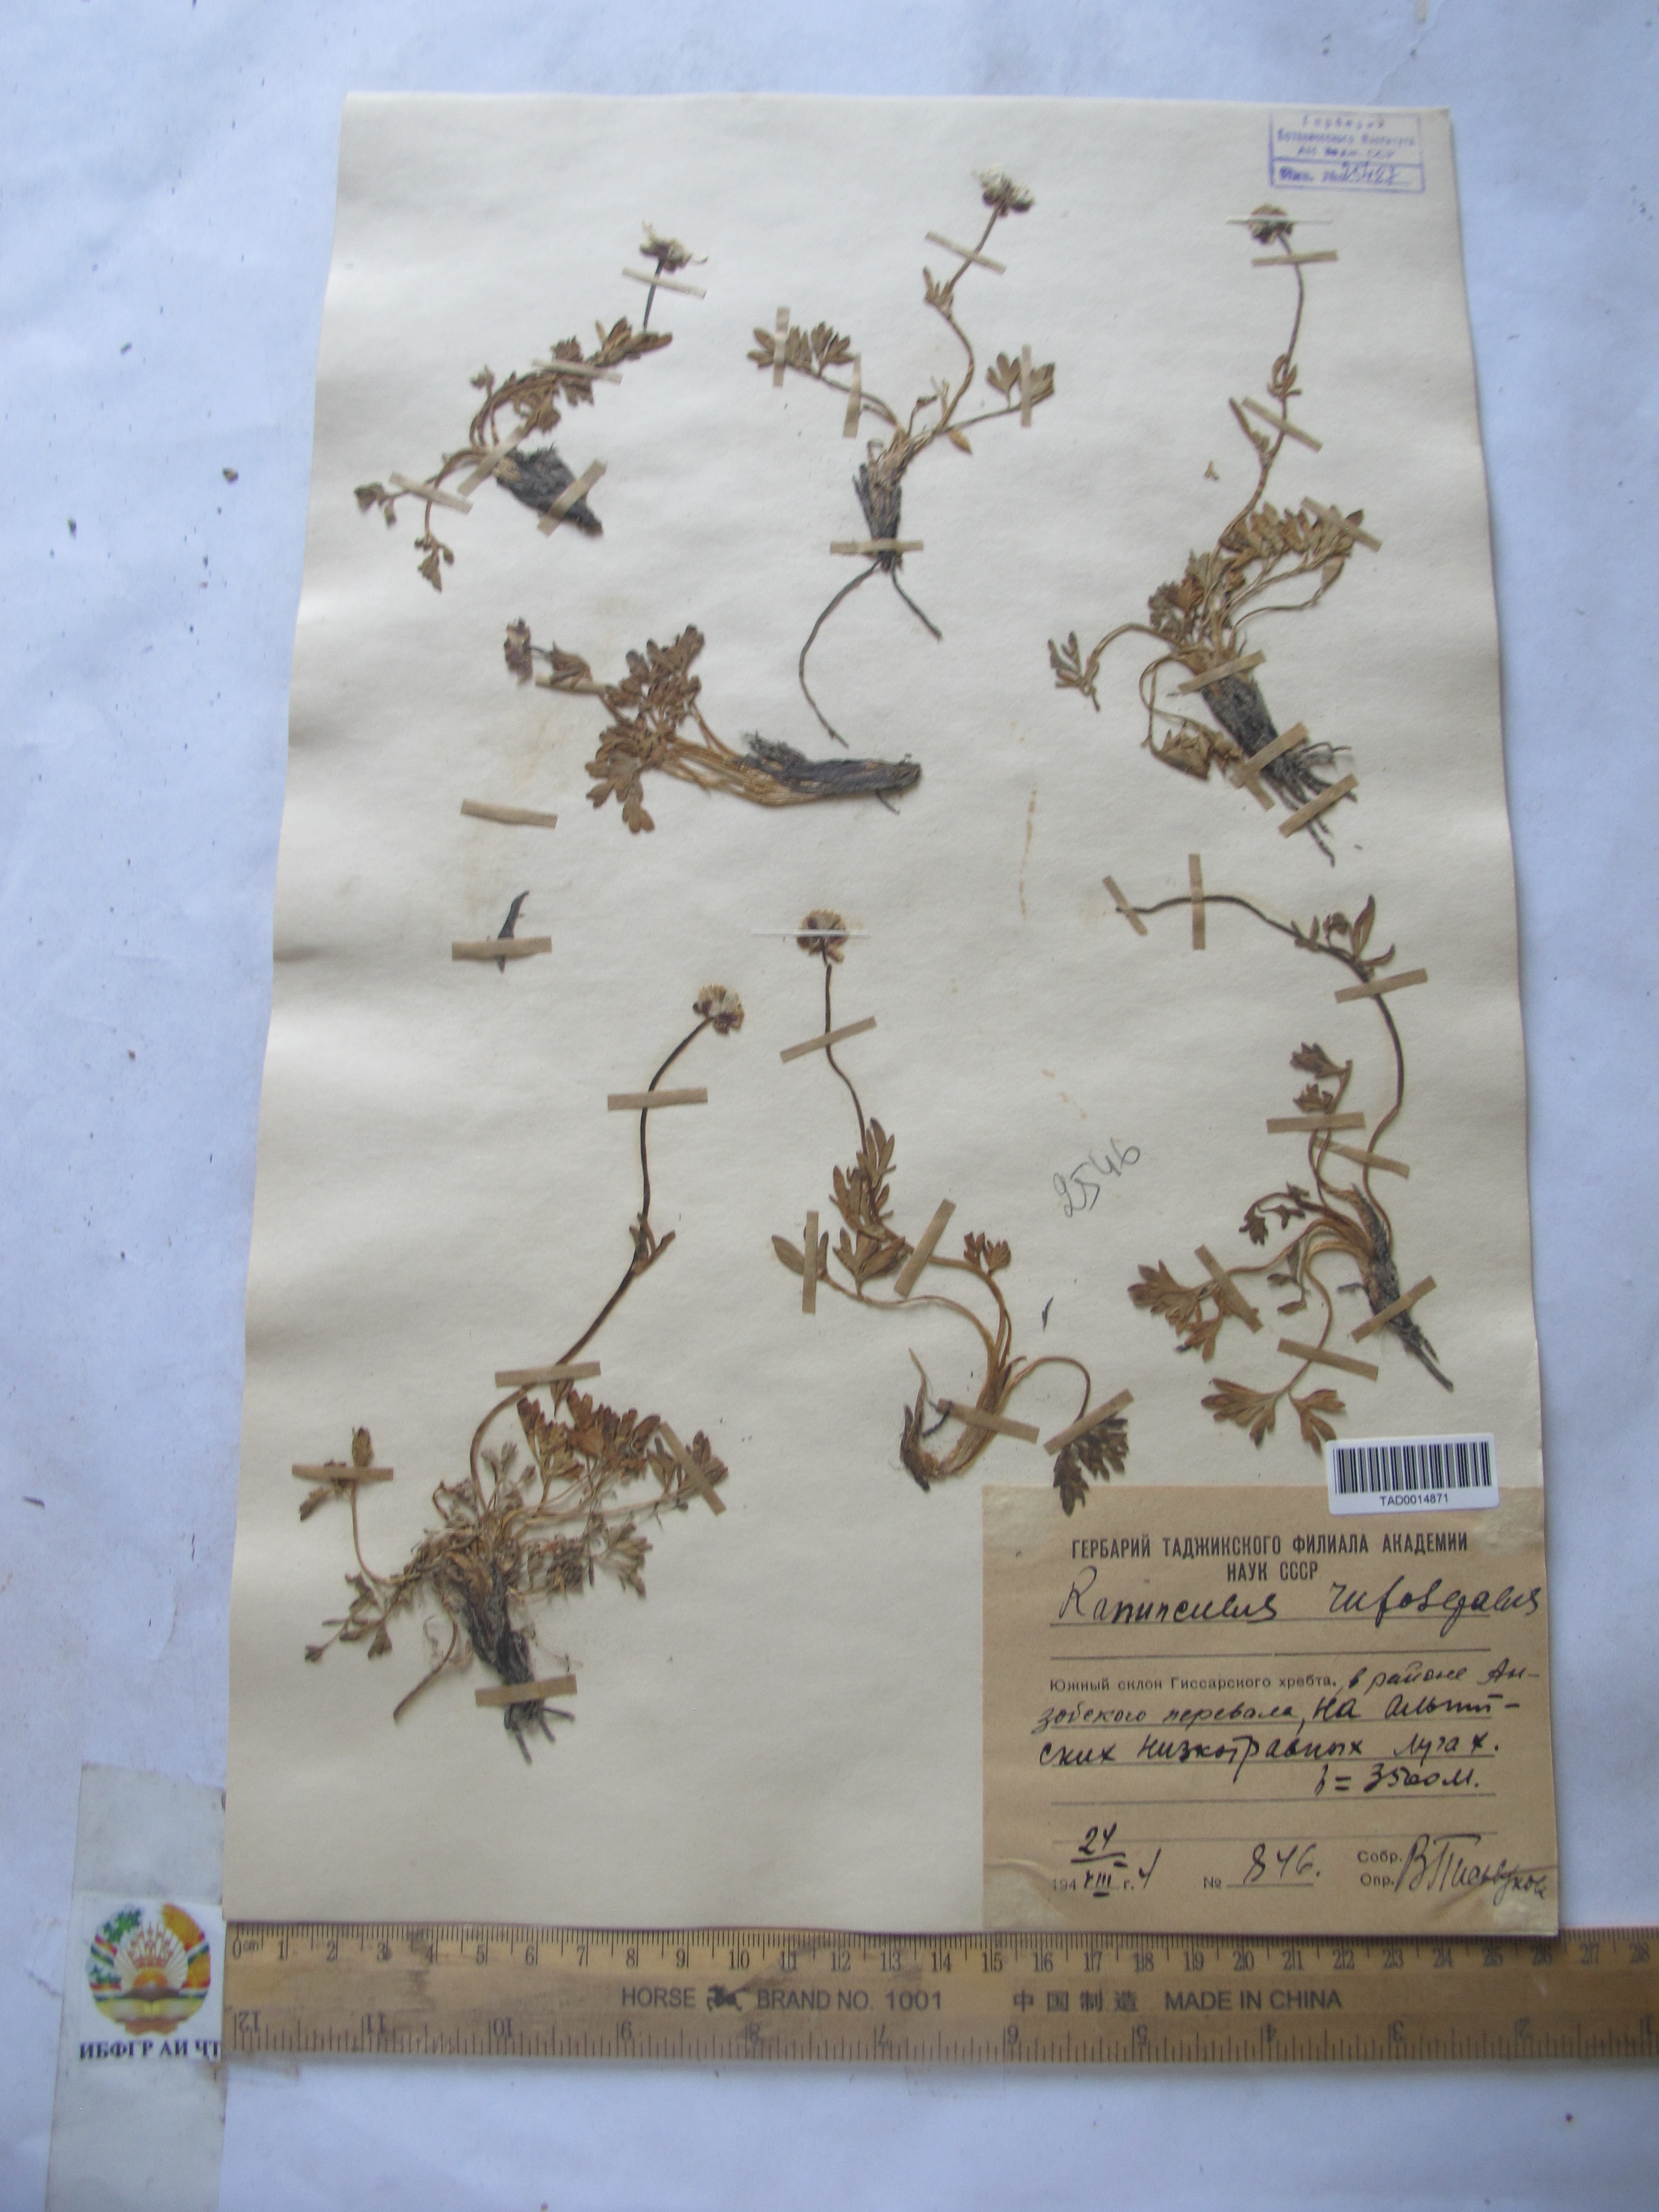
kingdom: Plantae
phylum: Tracheophyta
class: Magnoliopsida
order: Ranunculales
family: Ranunculaceae
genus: Ranunculus
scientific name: Ranunculus rufosepalus
